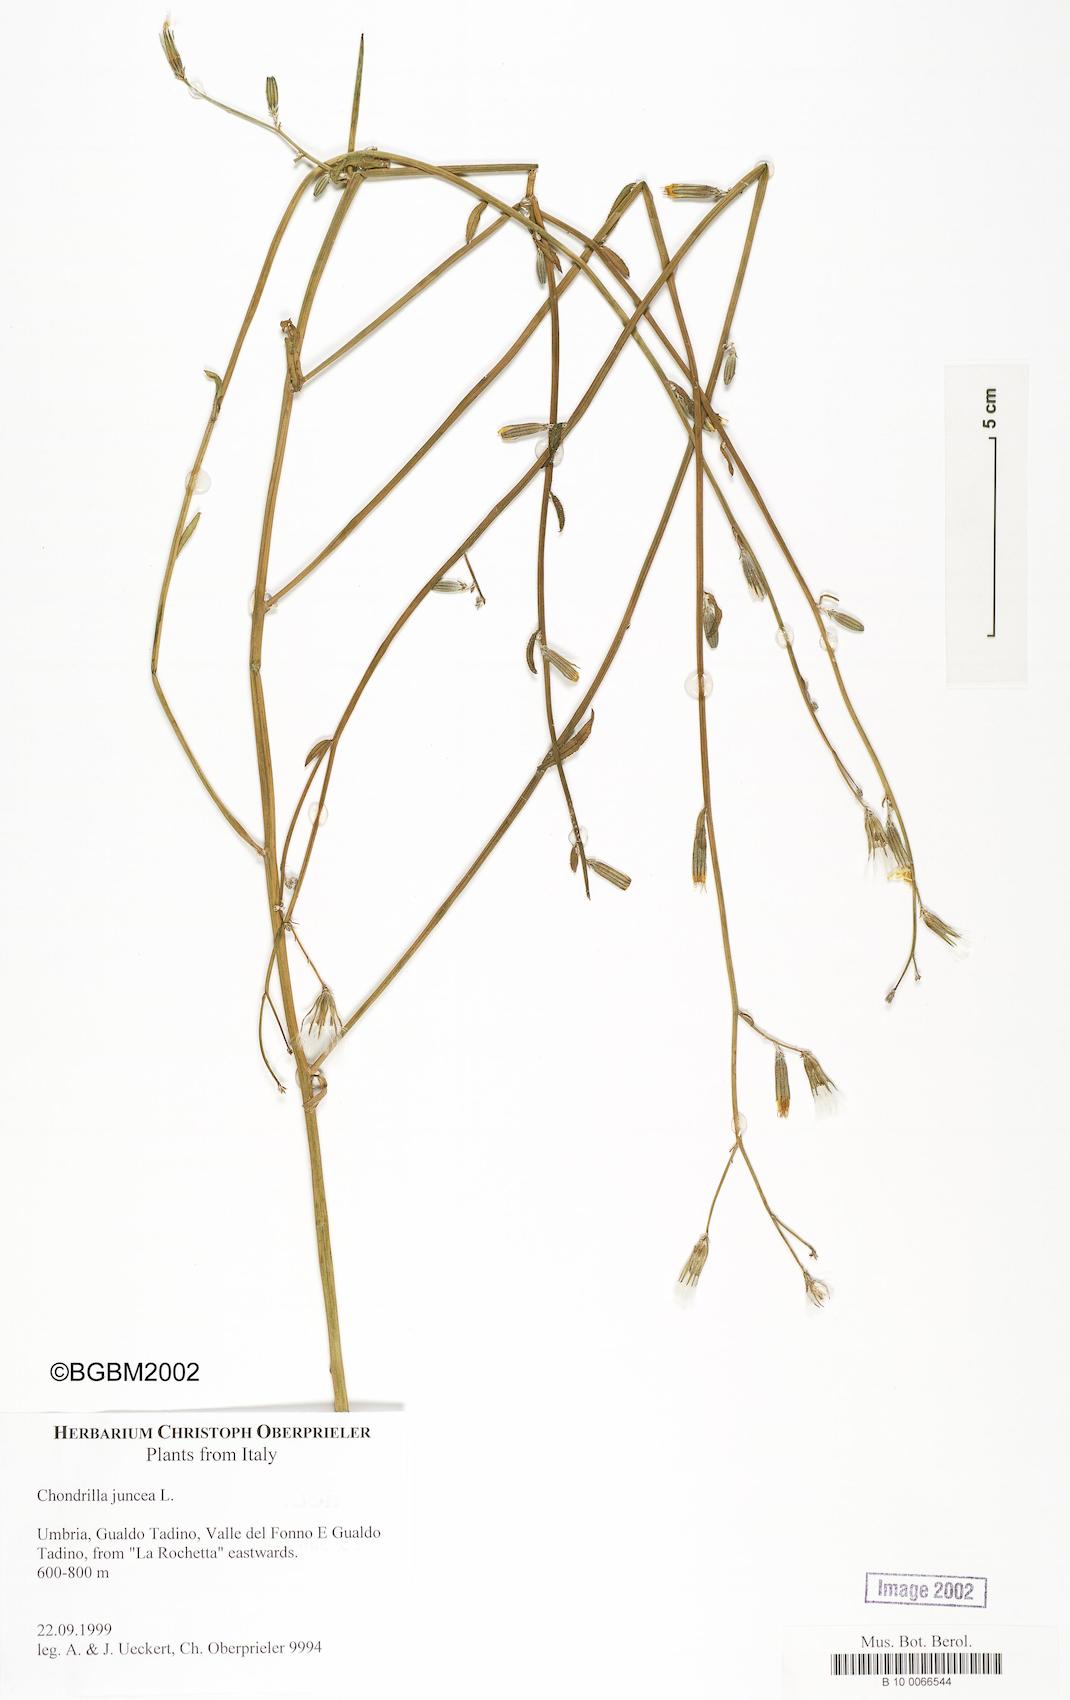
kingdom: Plantae
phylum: Tracheophyta
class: Magnoliopsida
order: Asterales
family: Asteraceae
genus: Chondrilla
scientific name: Chondrilla juncea
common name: Skeleton weed
